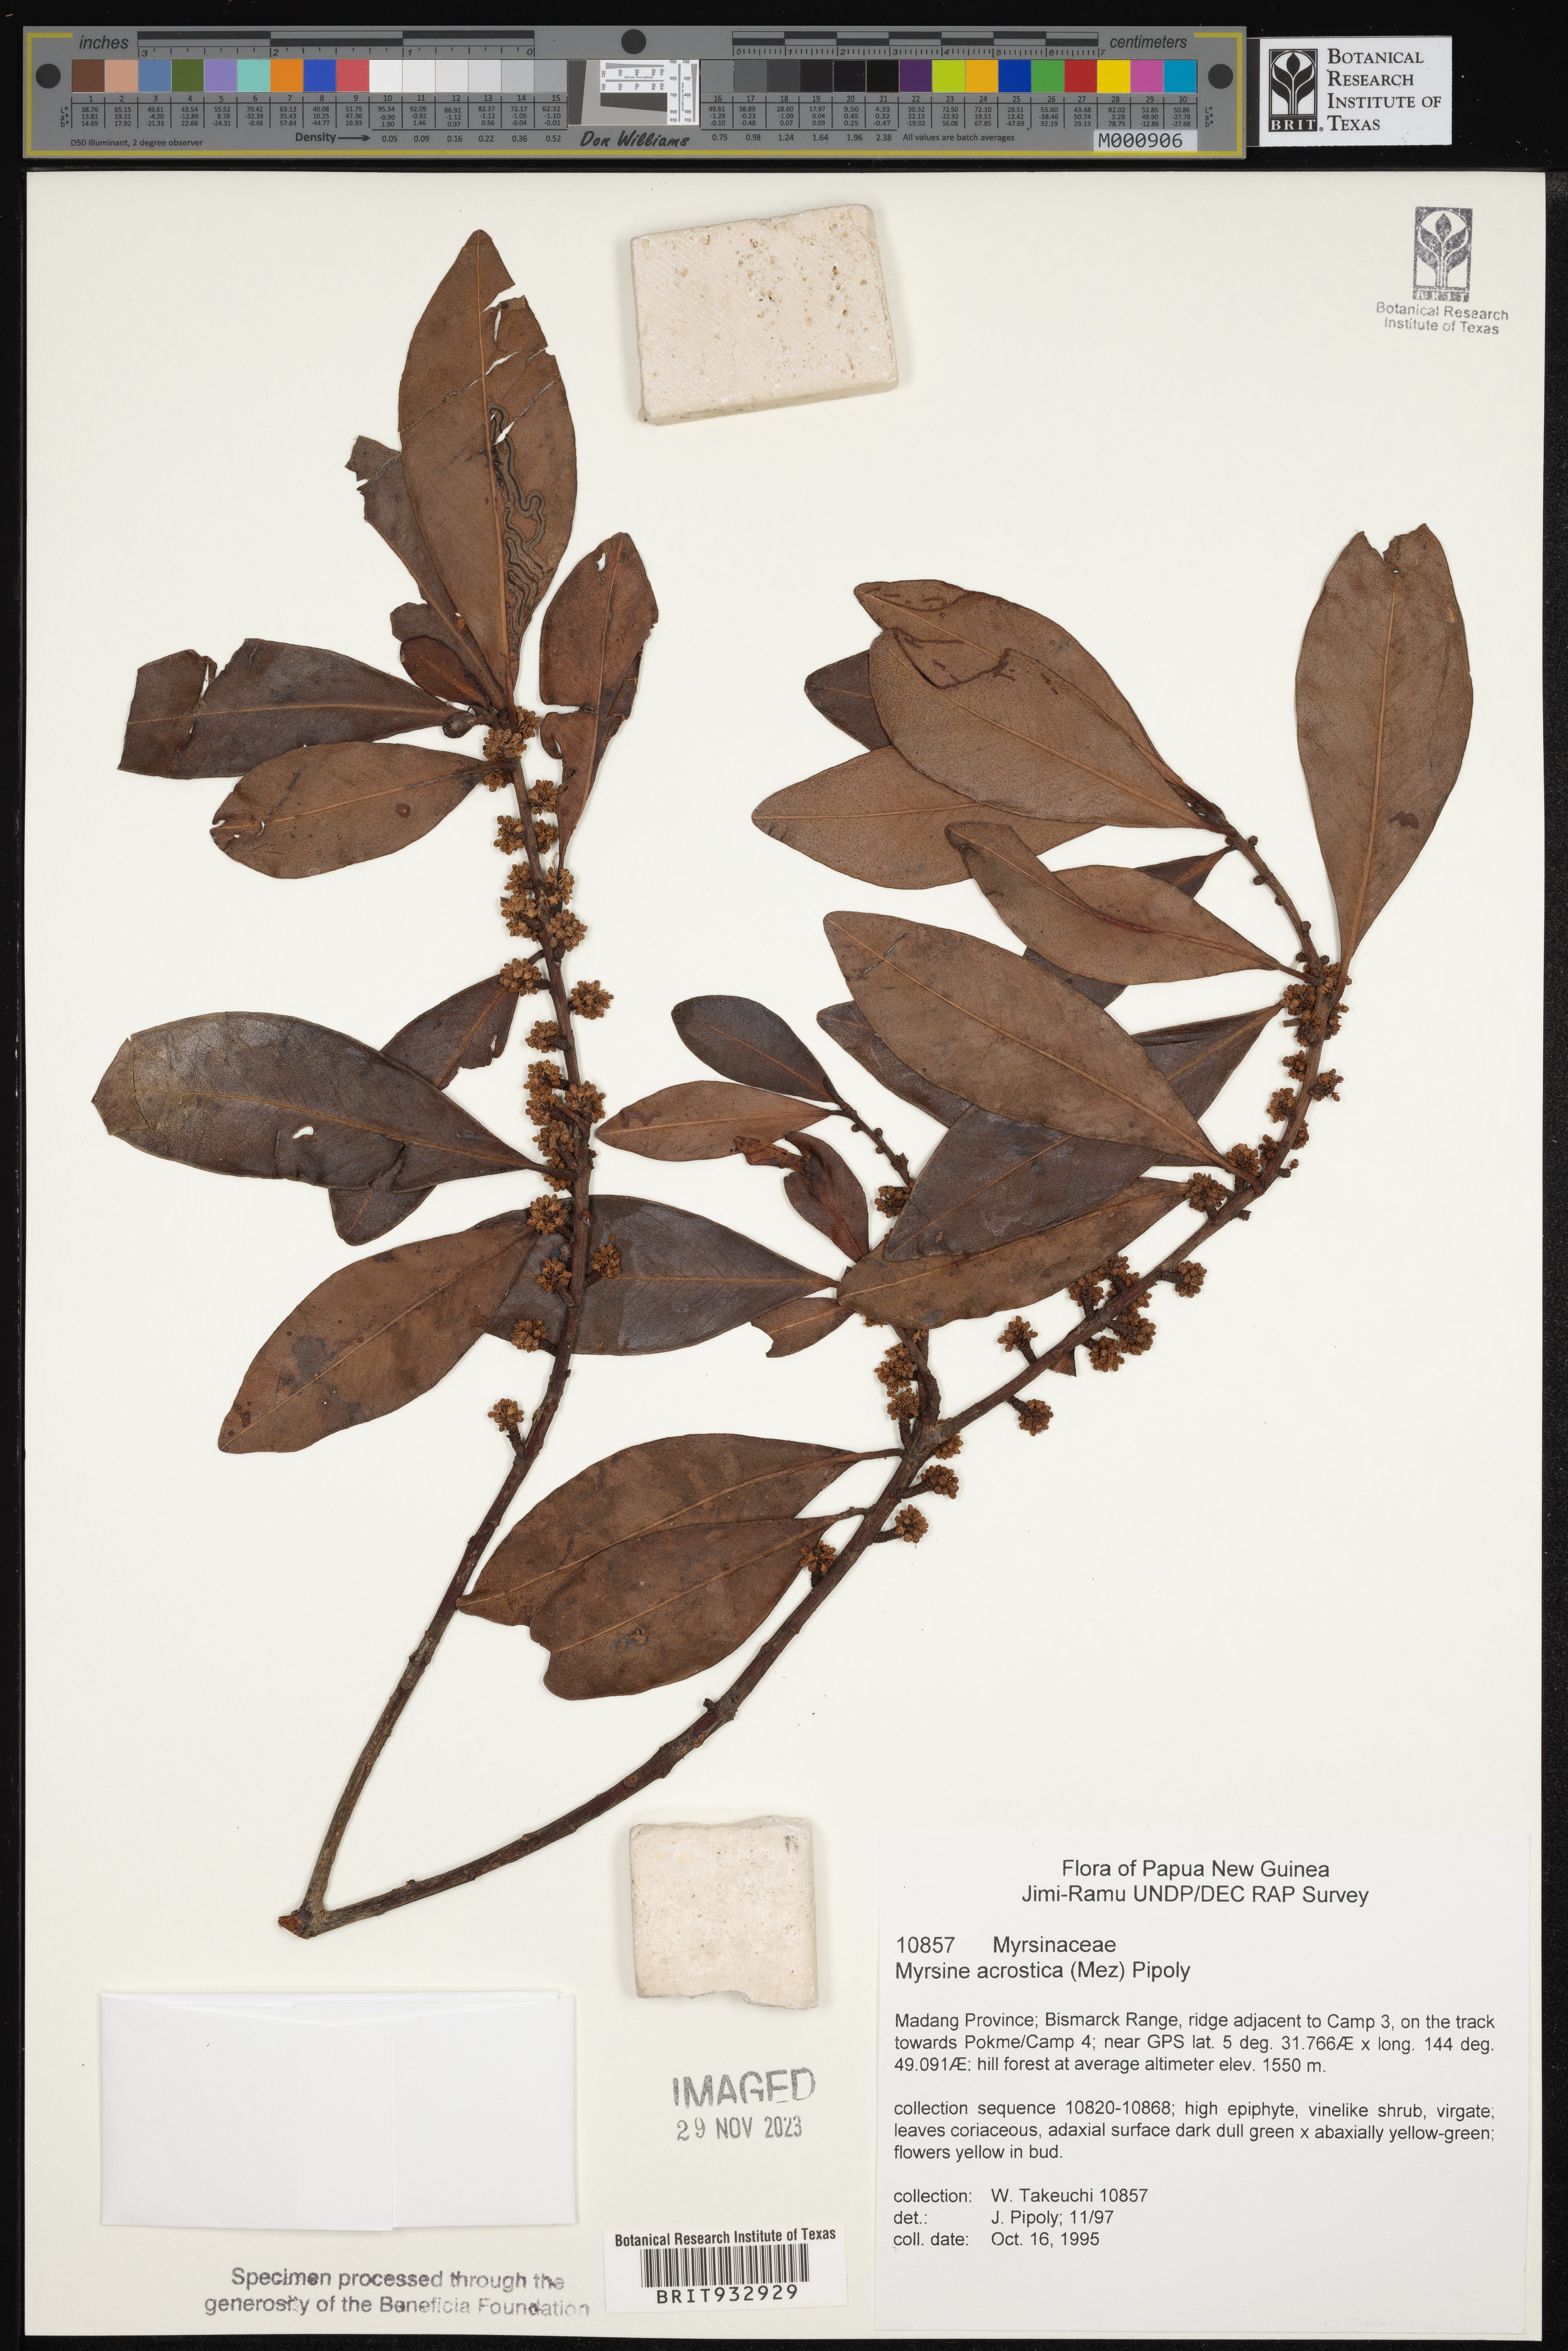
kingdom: Plantae
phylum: Tracheophyta
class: Magnoliopsida
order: Ericales
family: Primulaceae
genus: Myrsine
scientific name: Myrsine
